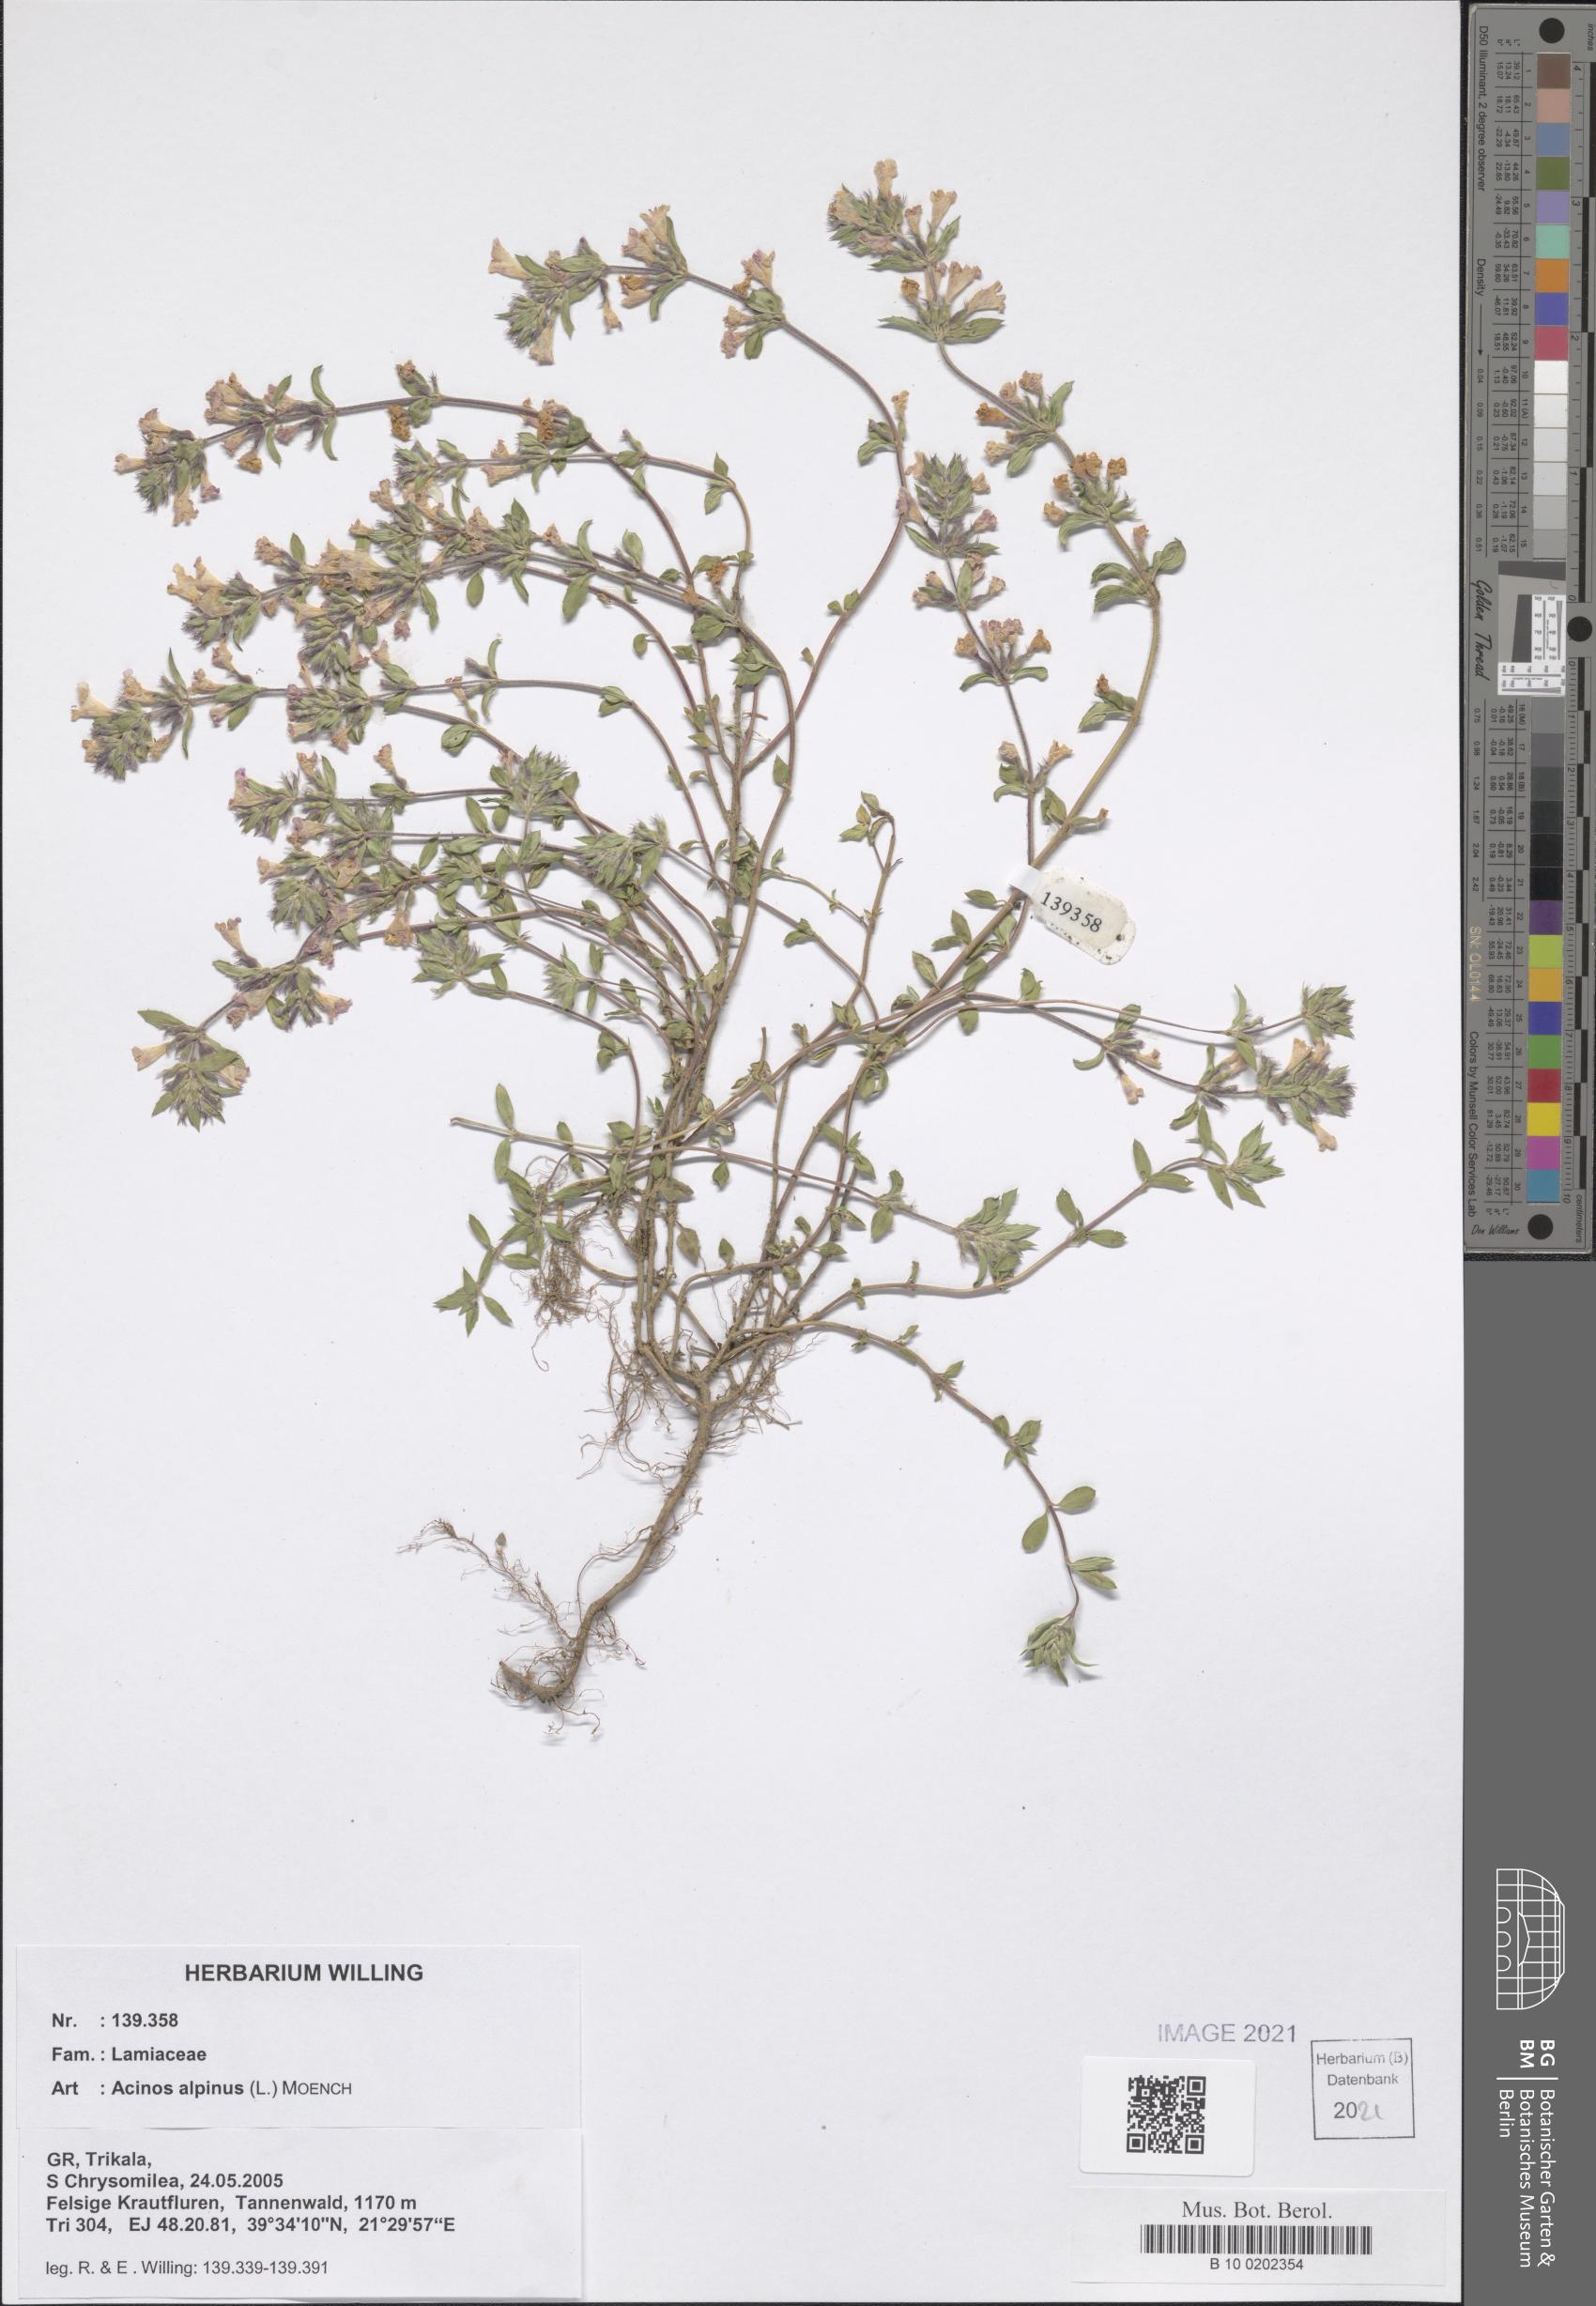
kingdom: Plantae
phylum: Tracheophyta
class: Magnoliopsida
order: Lamiales
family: Lamiaceae
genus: Clinopodium
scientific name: Clinopodium alpinum
